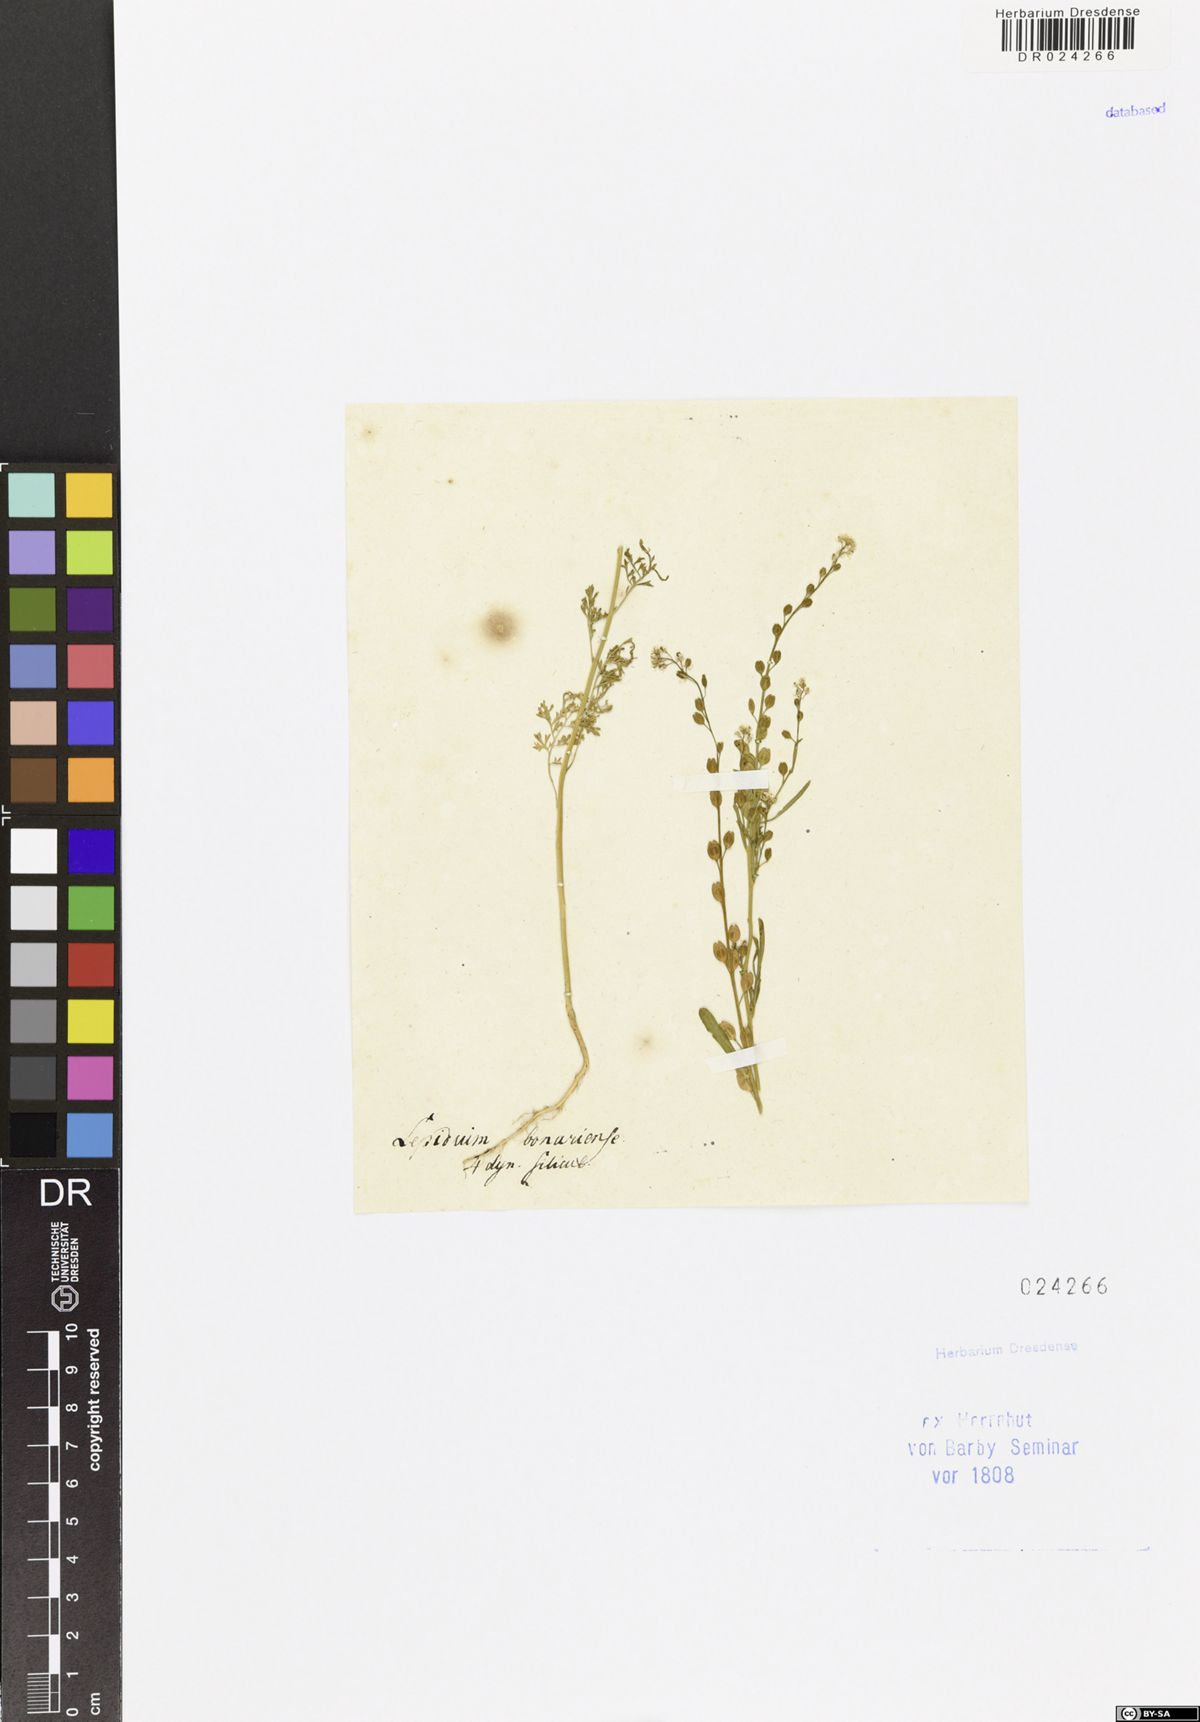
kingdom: Plantae
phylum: Tracheophyta
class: Magnoliopsida
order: Brassicales
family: Brassicaceae
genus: Lepidium
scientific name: Lepidium bonariense
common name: Argentine pepperwort
